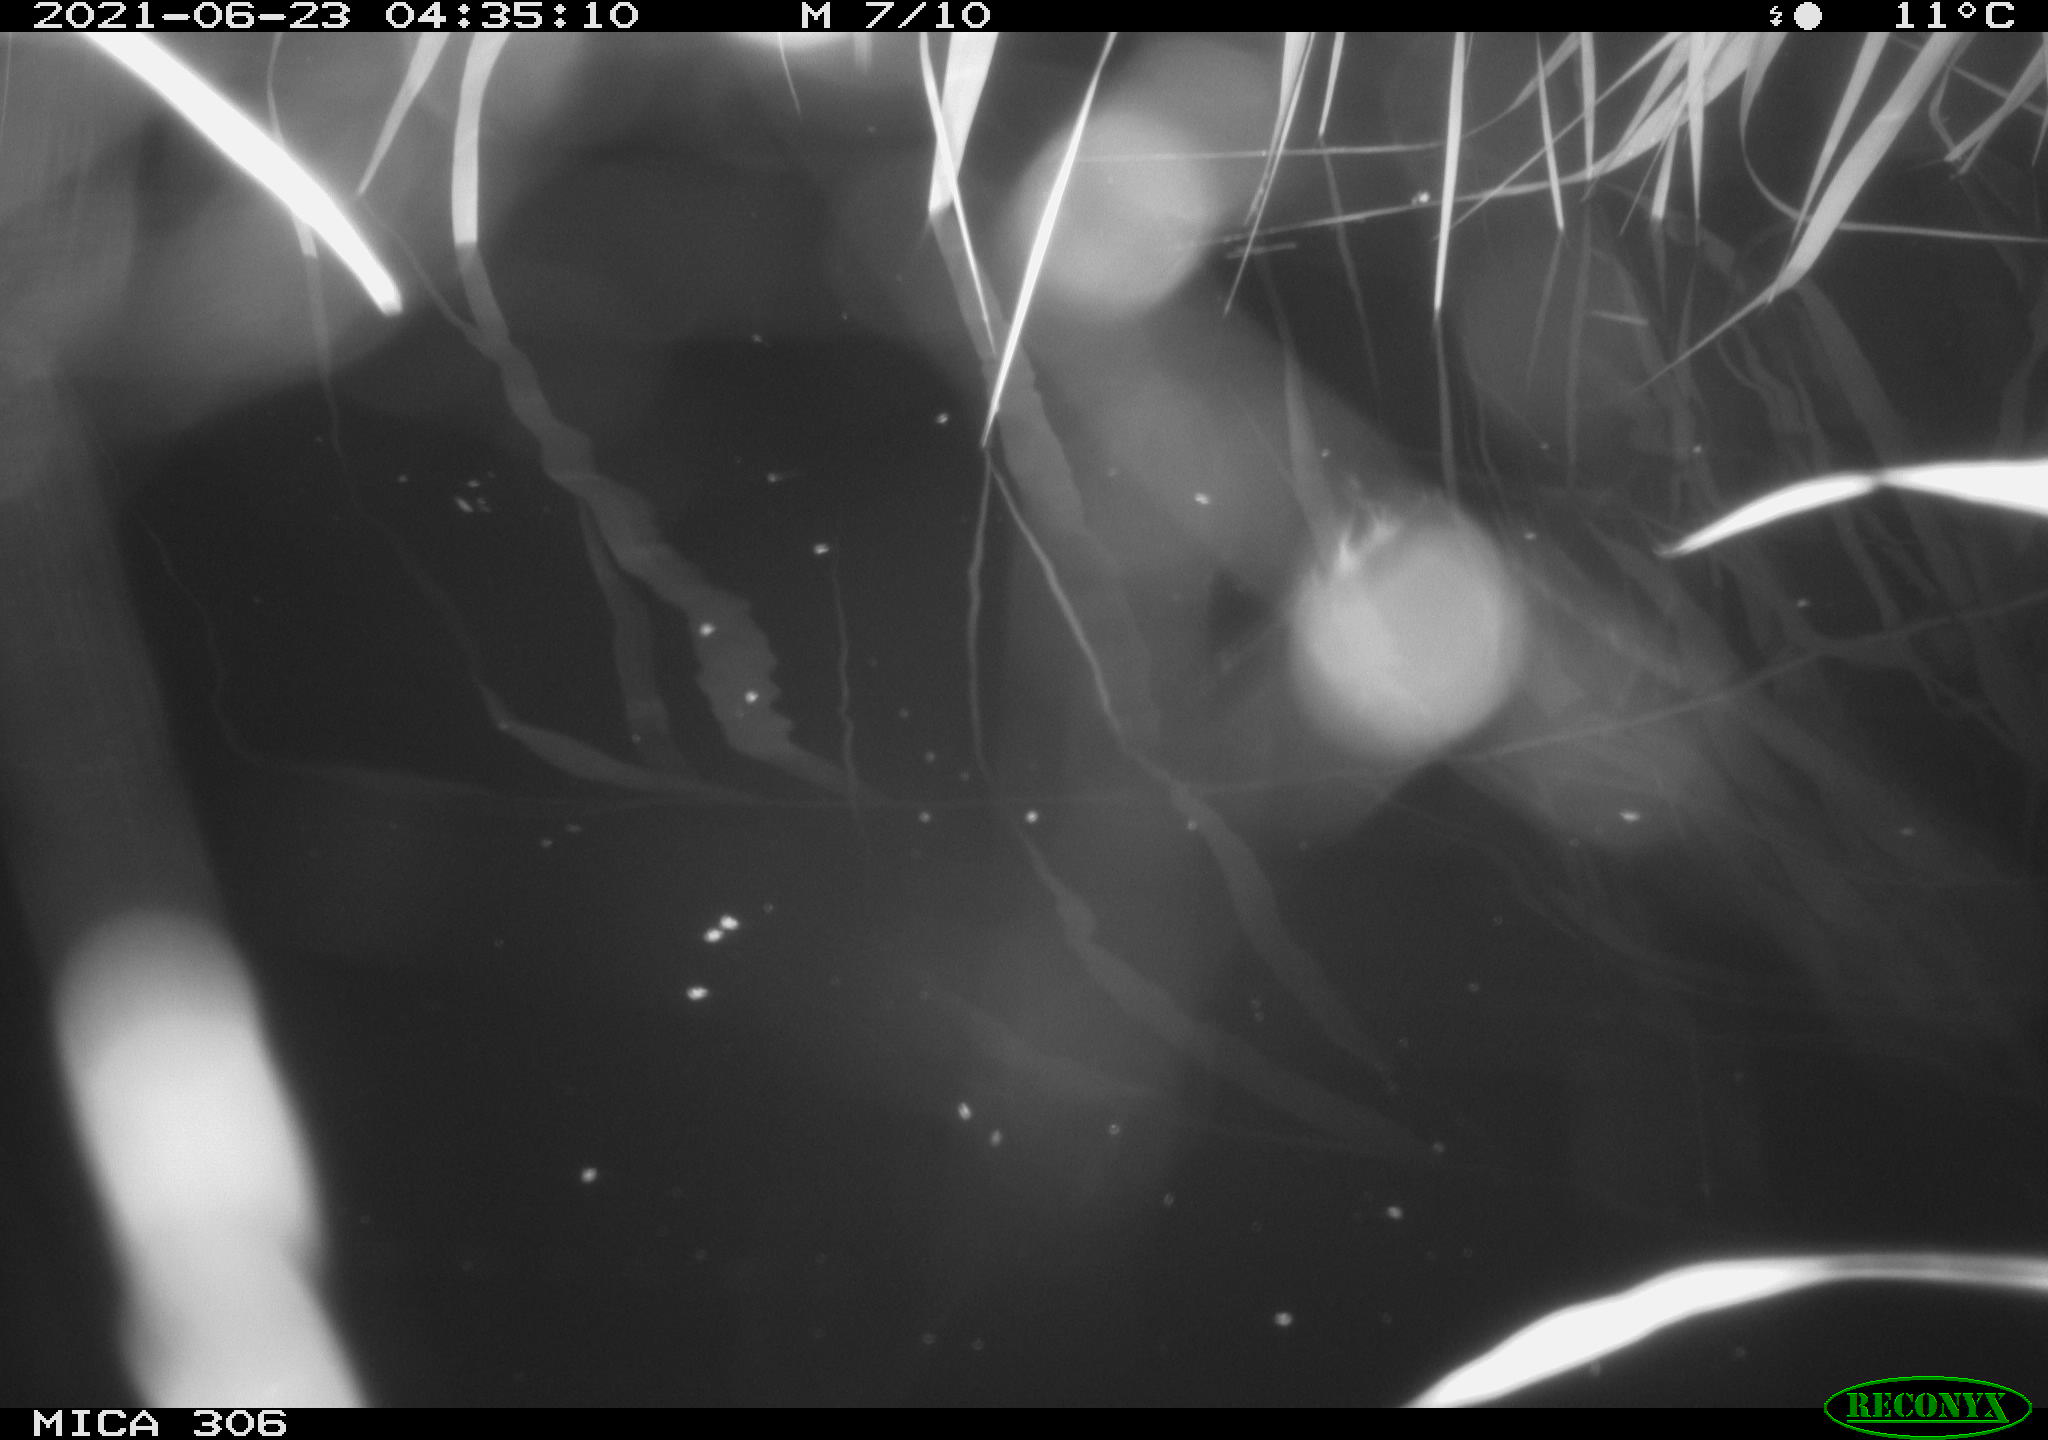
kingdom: Animalia
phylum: Chordata
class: Mammalia
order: Rodentia
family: Cricetidae
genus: Ondatra
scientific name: Ondatra zibethicus
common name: Muskrat
